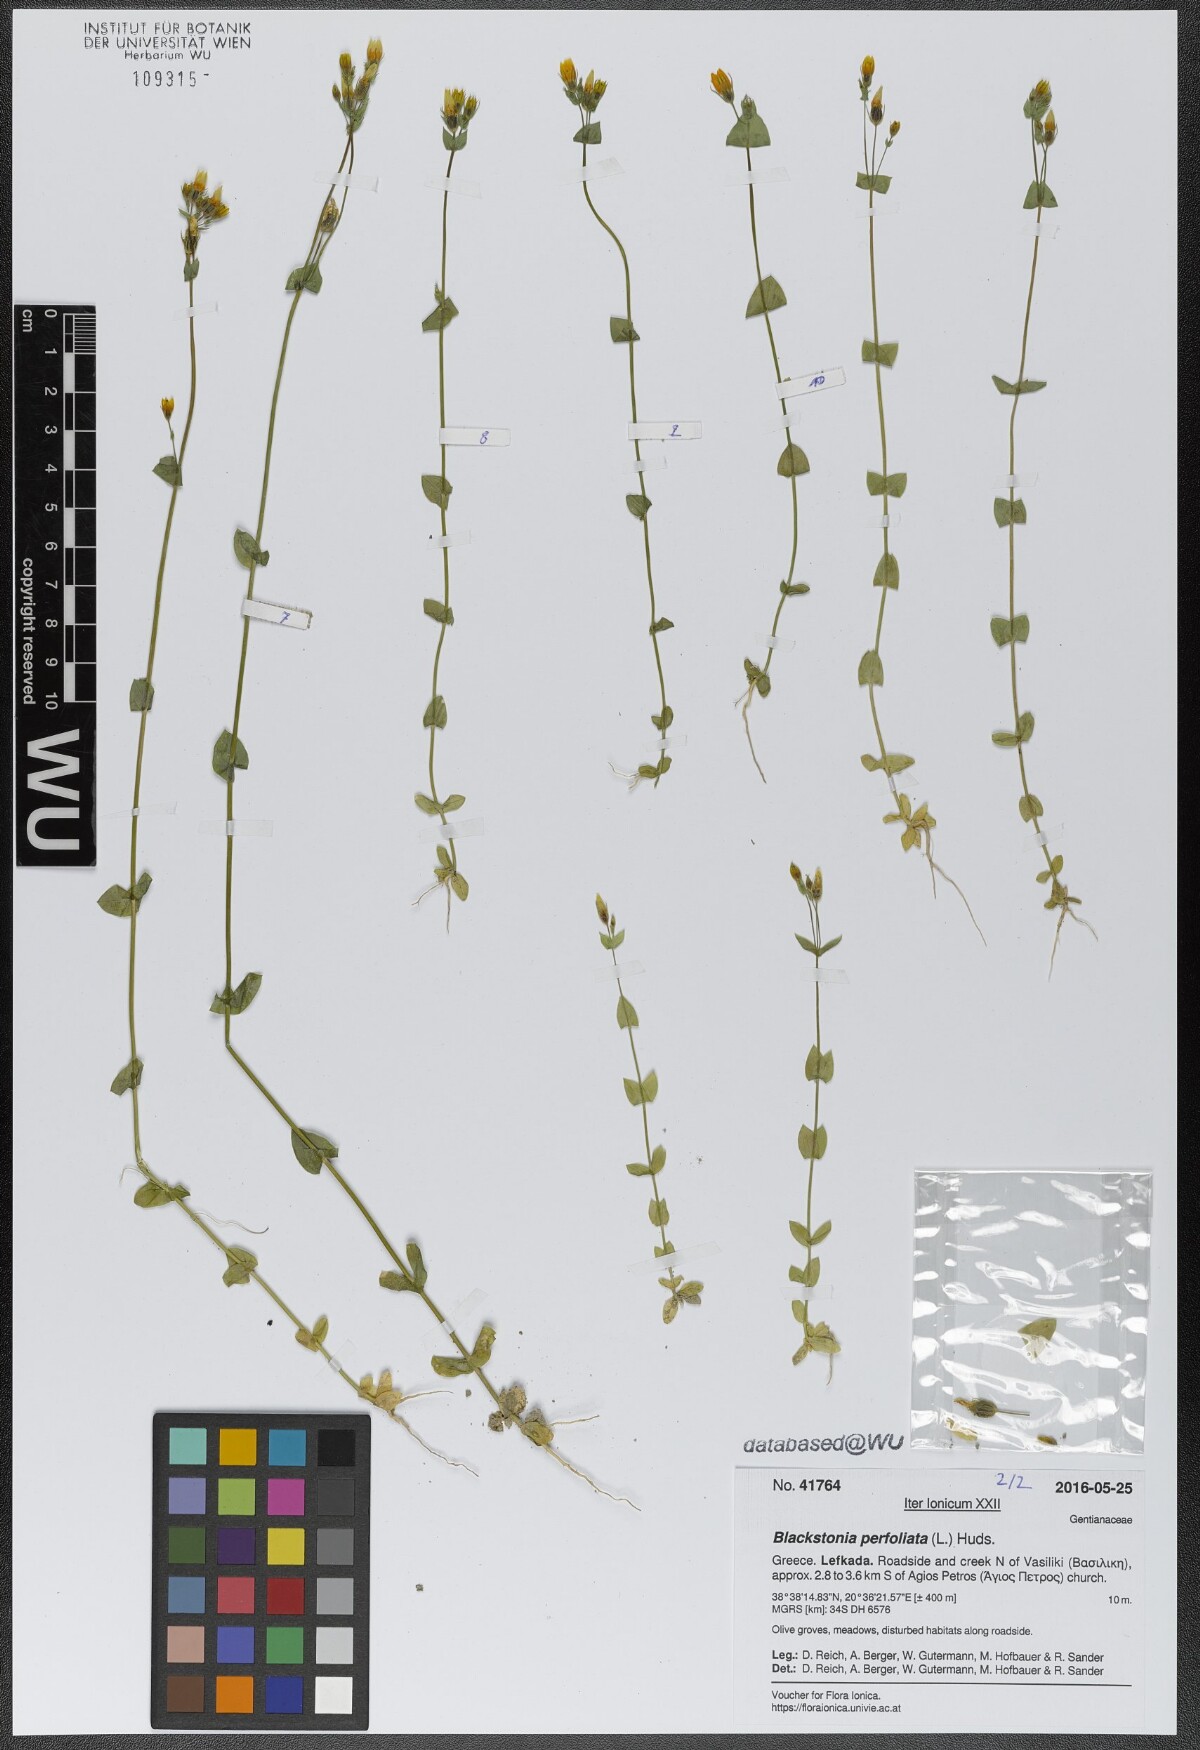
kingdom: Plantae
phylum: Tracheophyta
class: Magnoliopsida
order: Gentianales
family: Gentianaceae
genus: Blackstonia
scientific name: Blackstonia perfoliata
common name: Yellow-wort
